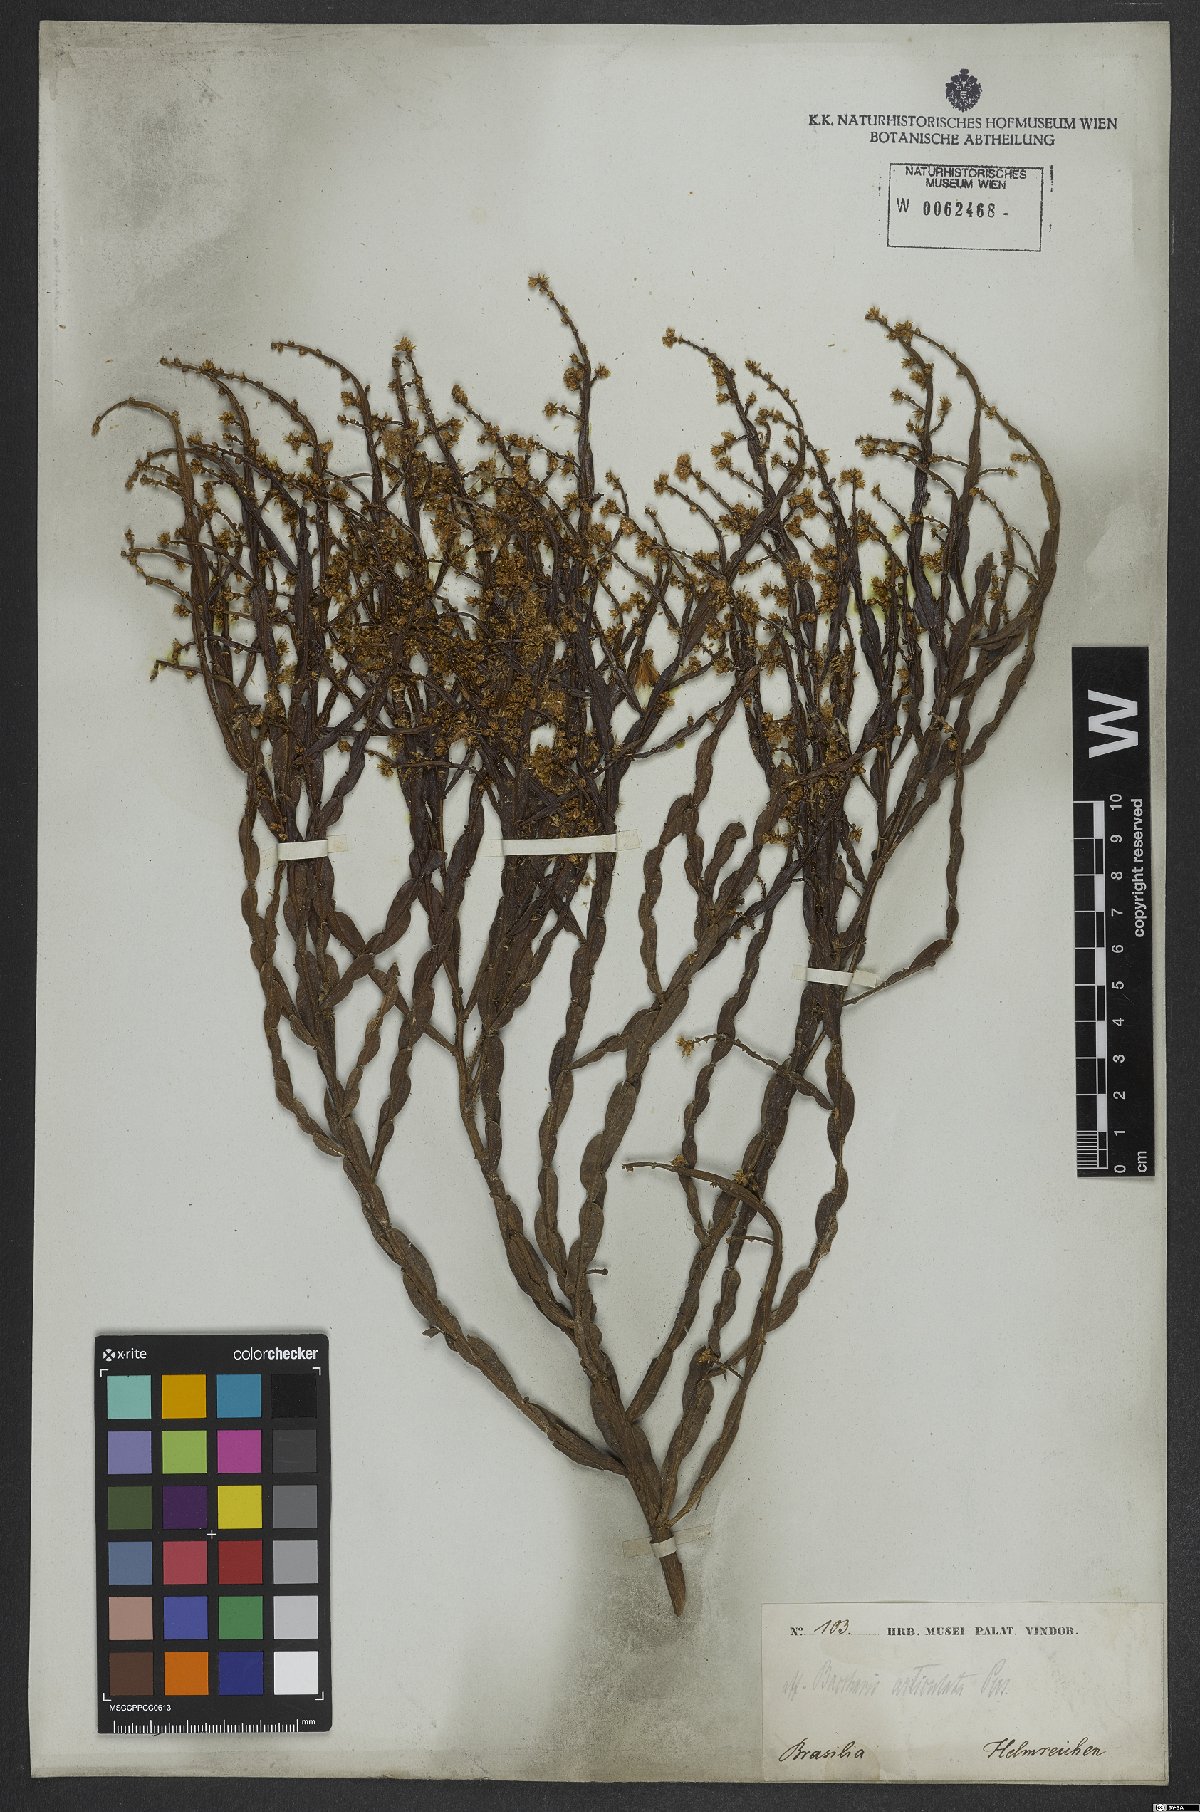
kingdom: Plantae
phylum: Tracheophyta
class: Magnoliopsida
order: Asterales
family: Asteraceae
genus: Baccharis
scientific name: Baccharis articulata
